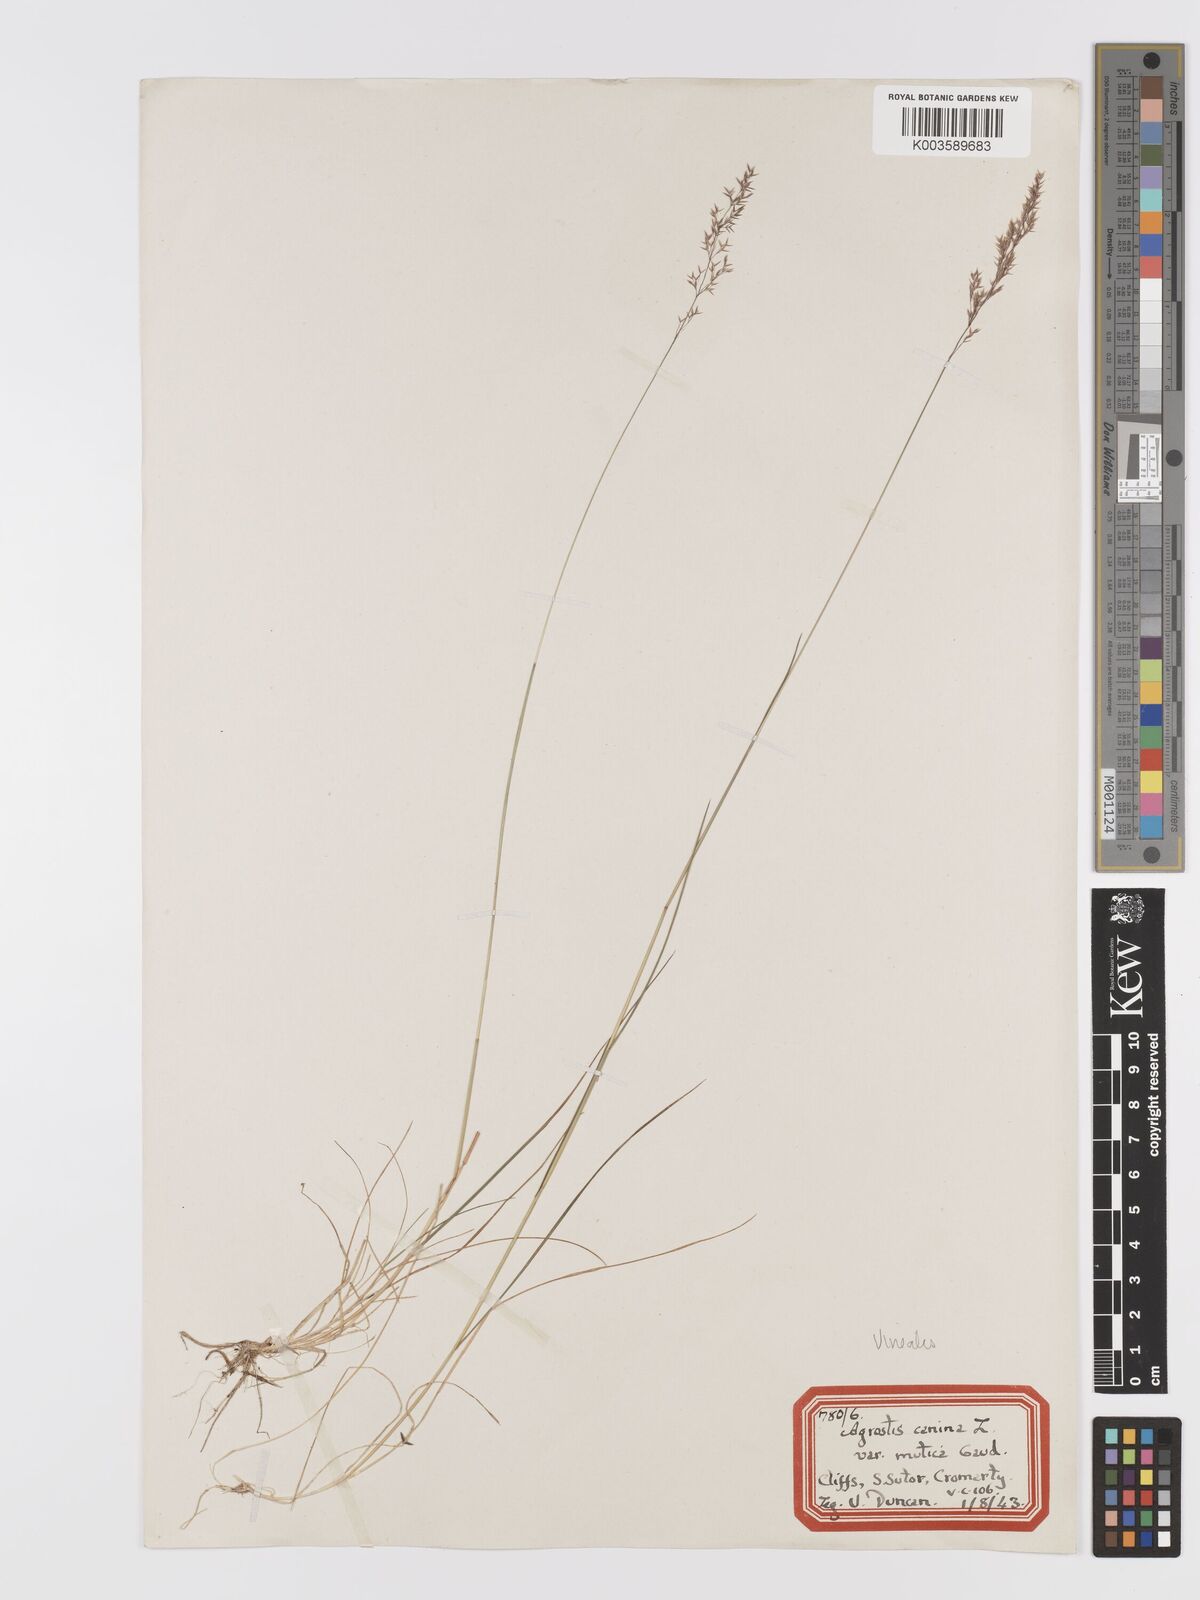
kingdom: Plantae
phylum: Tracheophyta
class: Liliopsida
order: Poales
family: Poaceae
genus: Agrostis
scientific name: Agrostis
